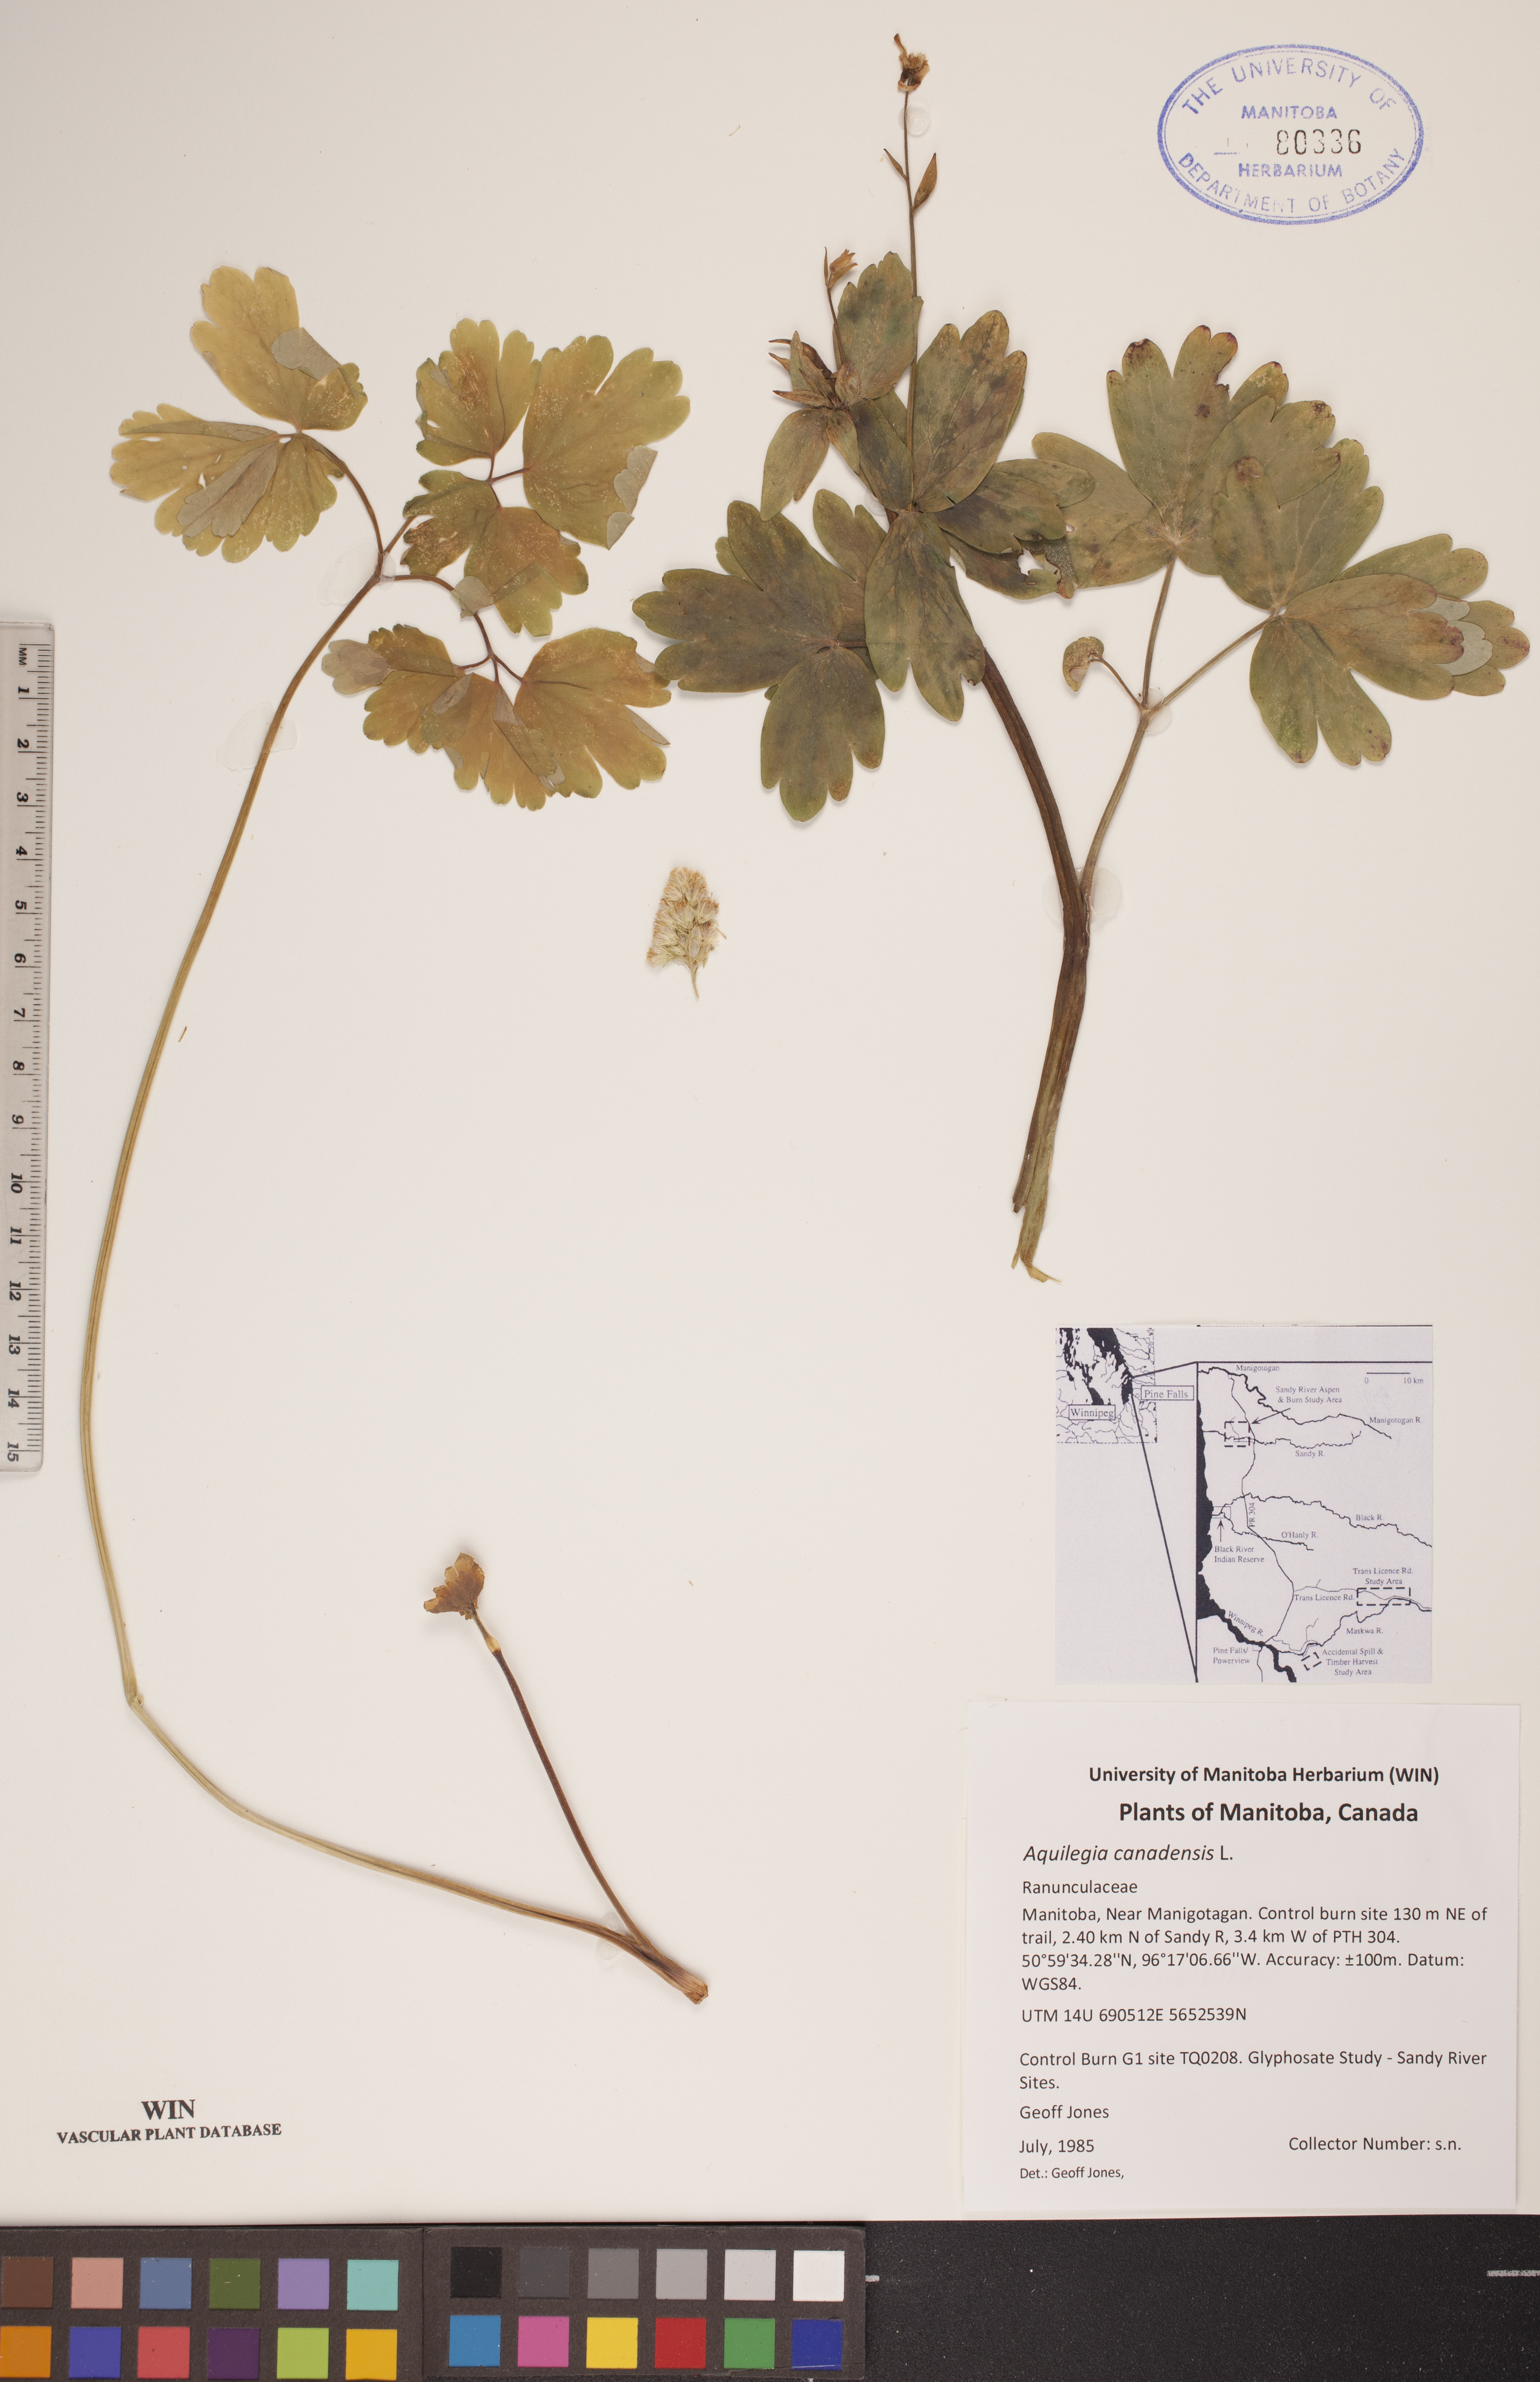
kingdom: Plantae
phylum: Tracheophyta
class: Magnoliopsida
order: Ranunculales
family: Ranunculaceae
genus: Aquilegia
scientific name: Aquilegia canadensis
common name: American columbine
